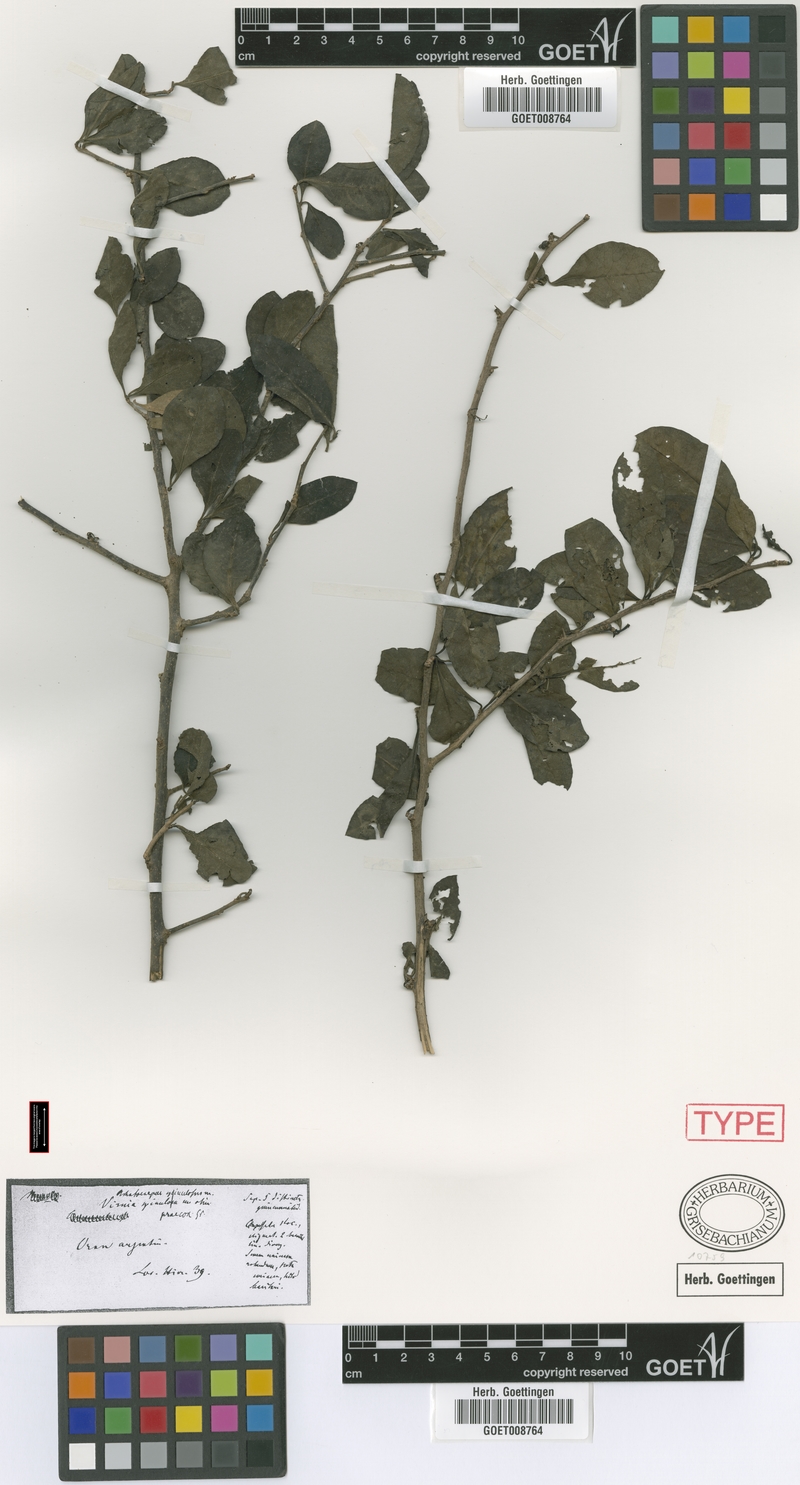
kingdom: Plantae
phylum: Tracheophyta
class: Magnoliopsida
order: Caryophyllales
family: Achatocarpaceae
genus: Achatocarpus
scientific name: Achatocarpus praecox
